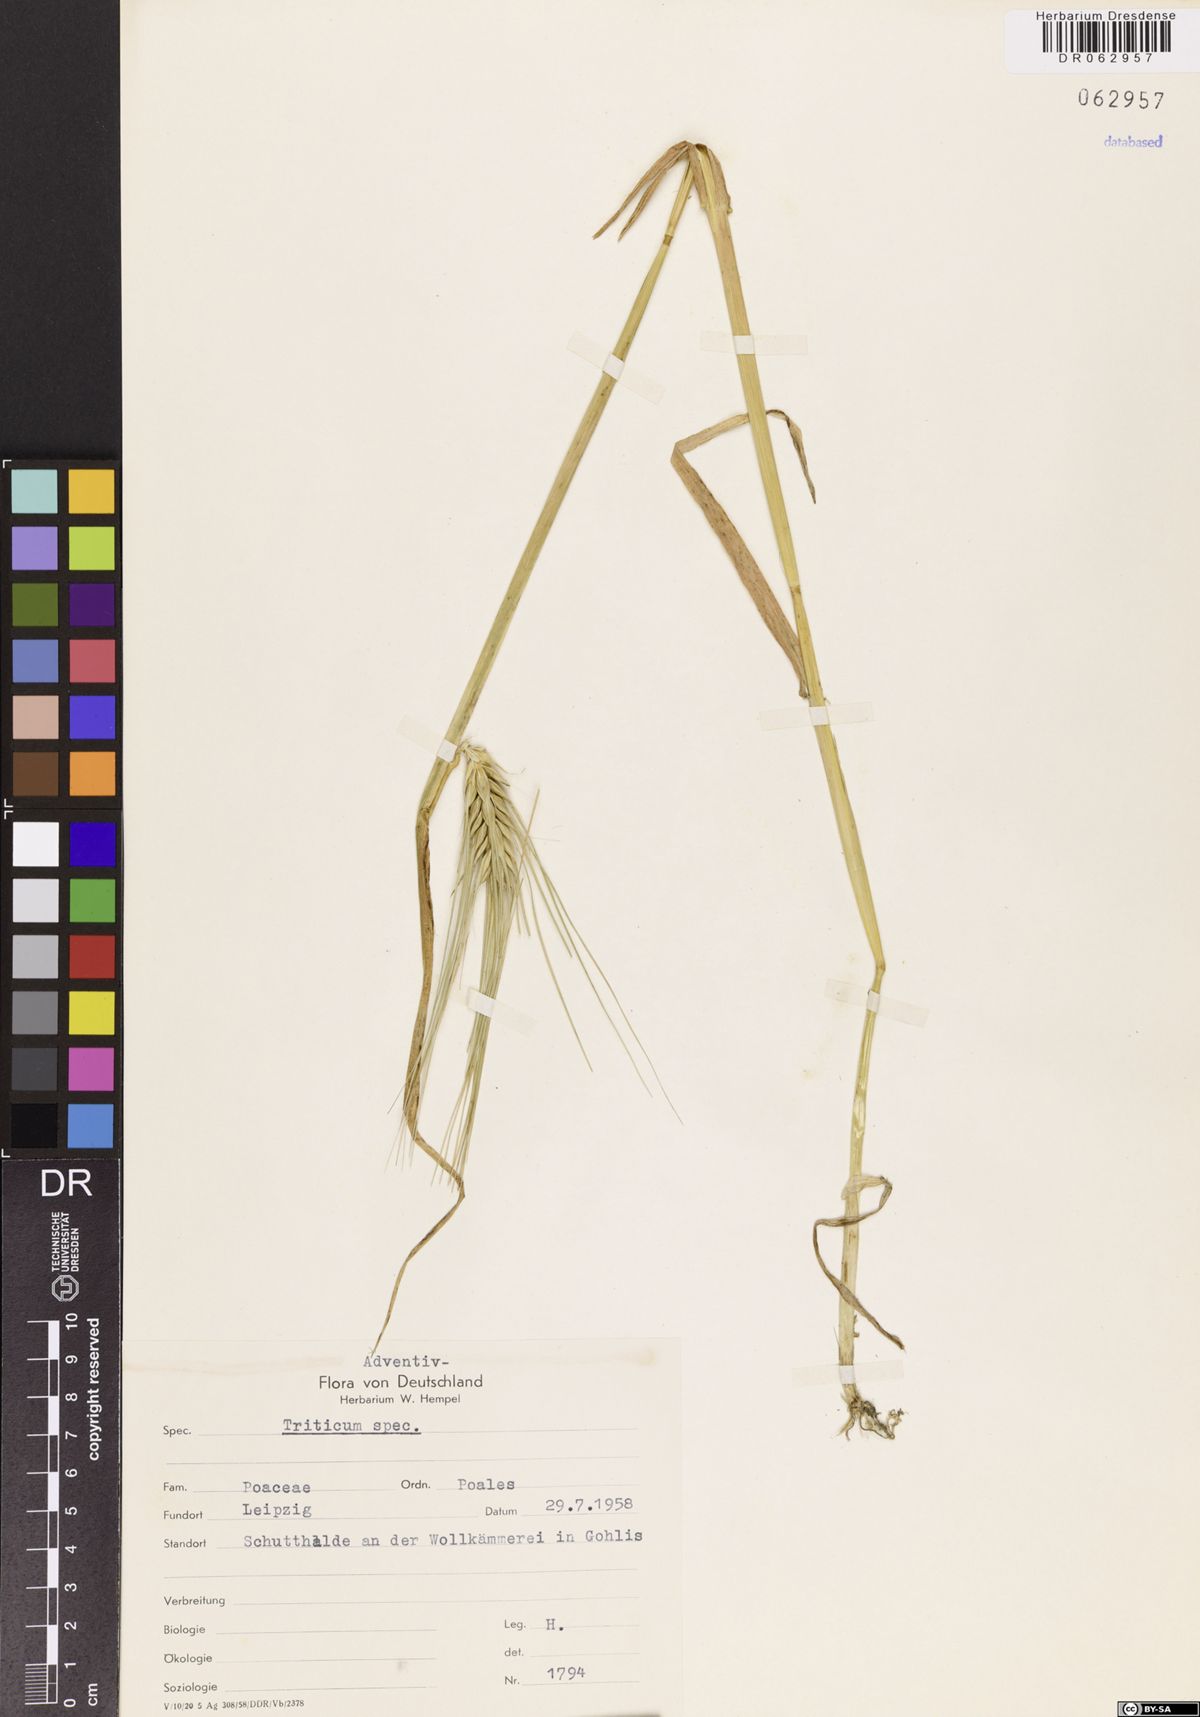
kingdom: Plantae
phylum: Tracheophyta
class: Liliopsida
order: Poales
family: Poaceae
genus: Triticum
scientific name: Triticum
